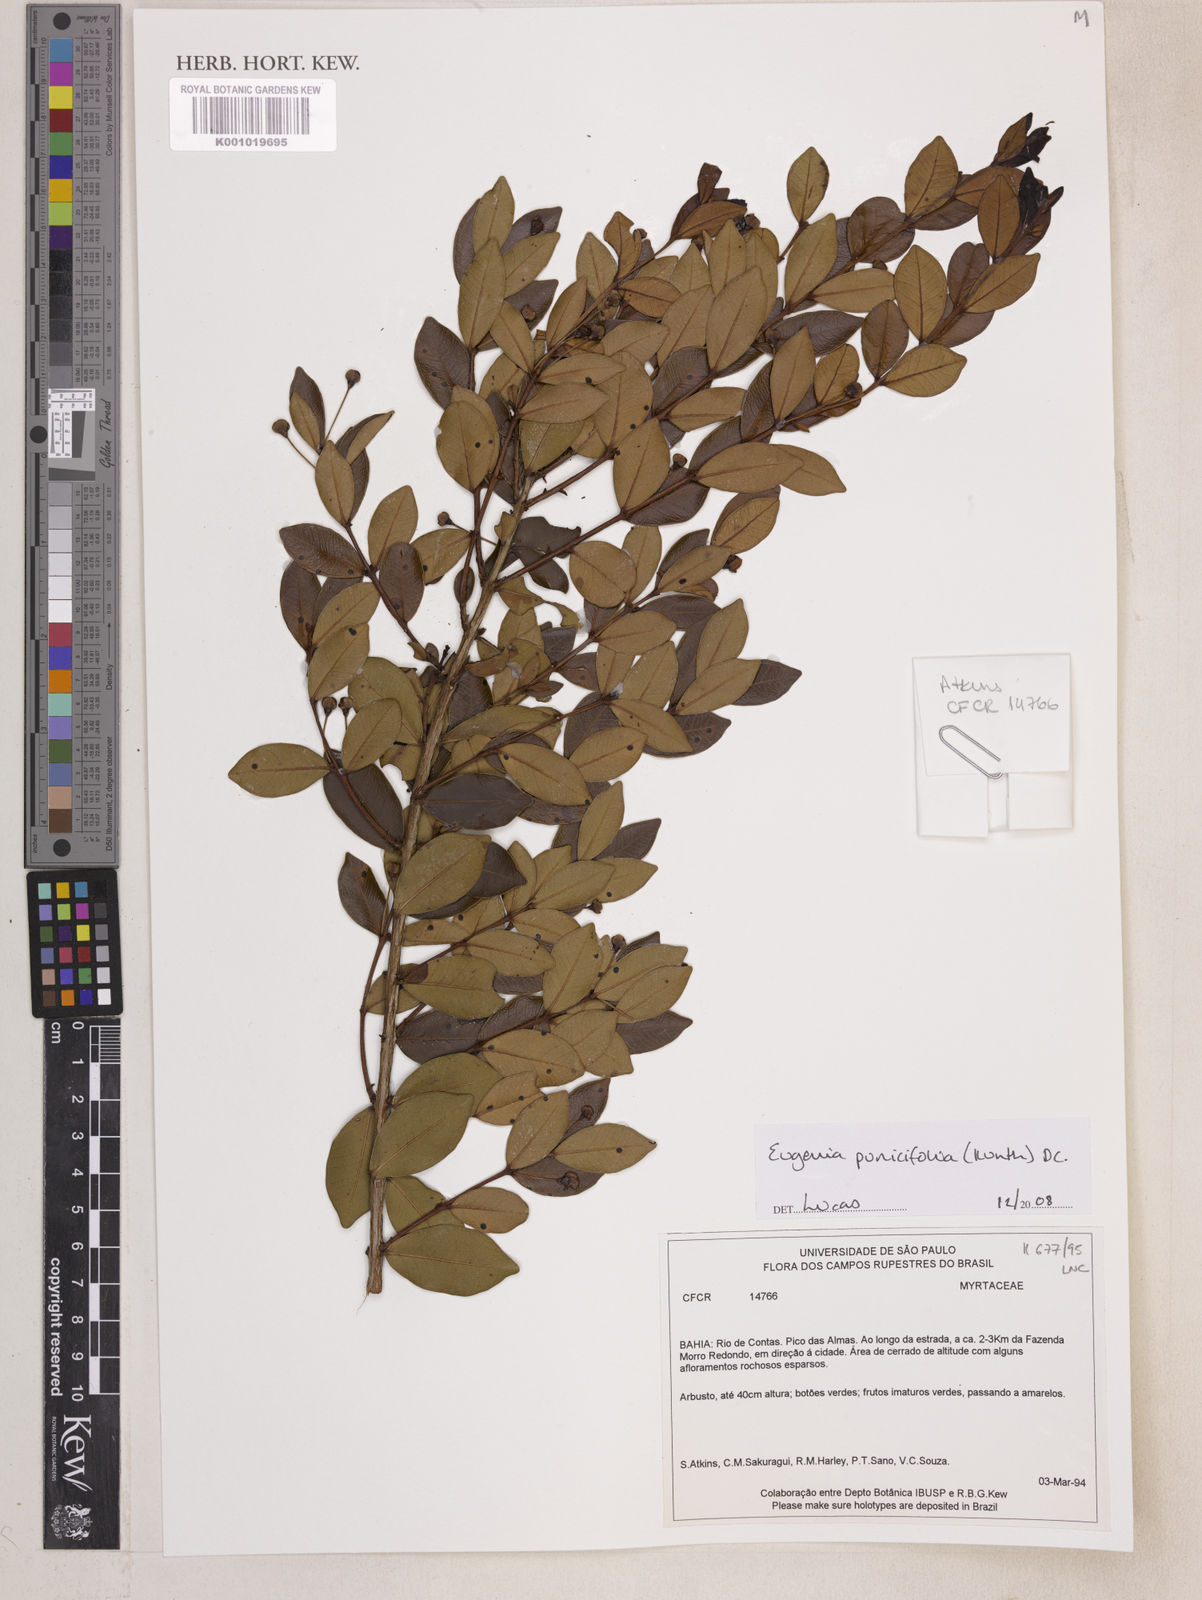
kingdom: Plantae
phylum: Tracheophyta
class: Magnoliopsida
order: Myrtales
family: Myrtaceae
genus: Eugenia
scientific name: Eugenia punicifolia
